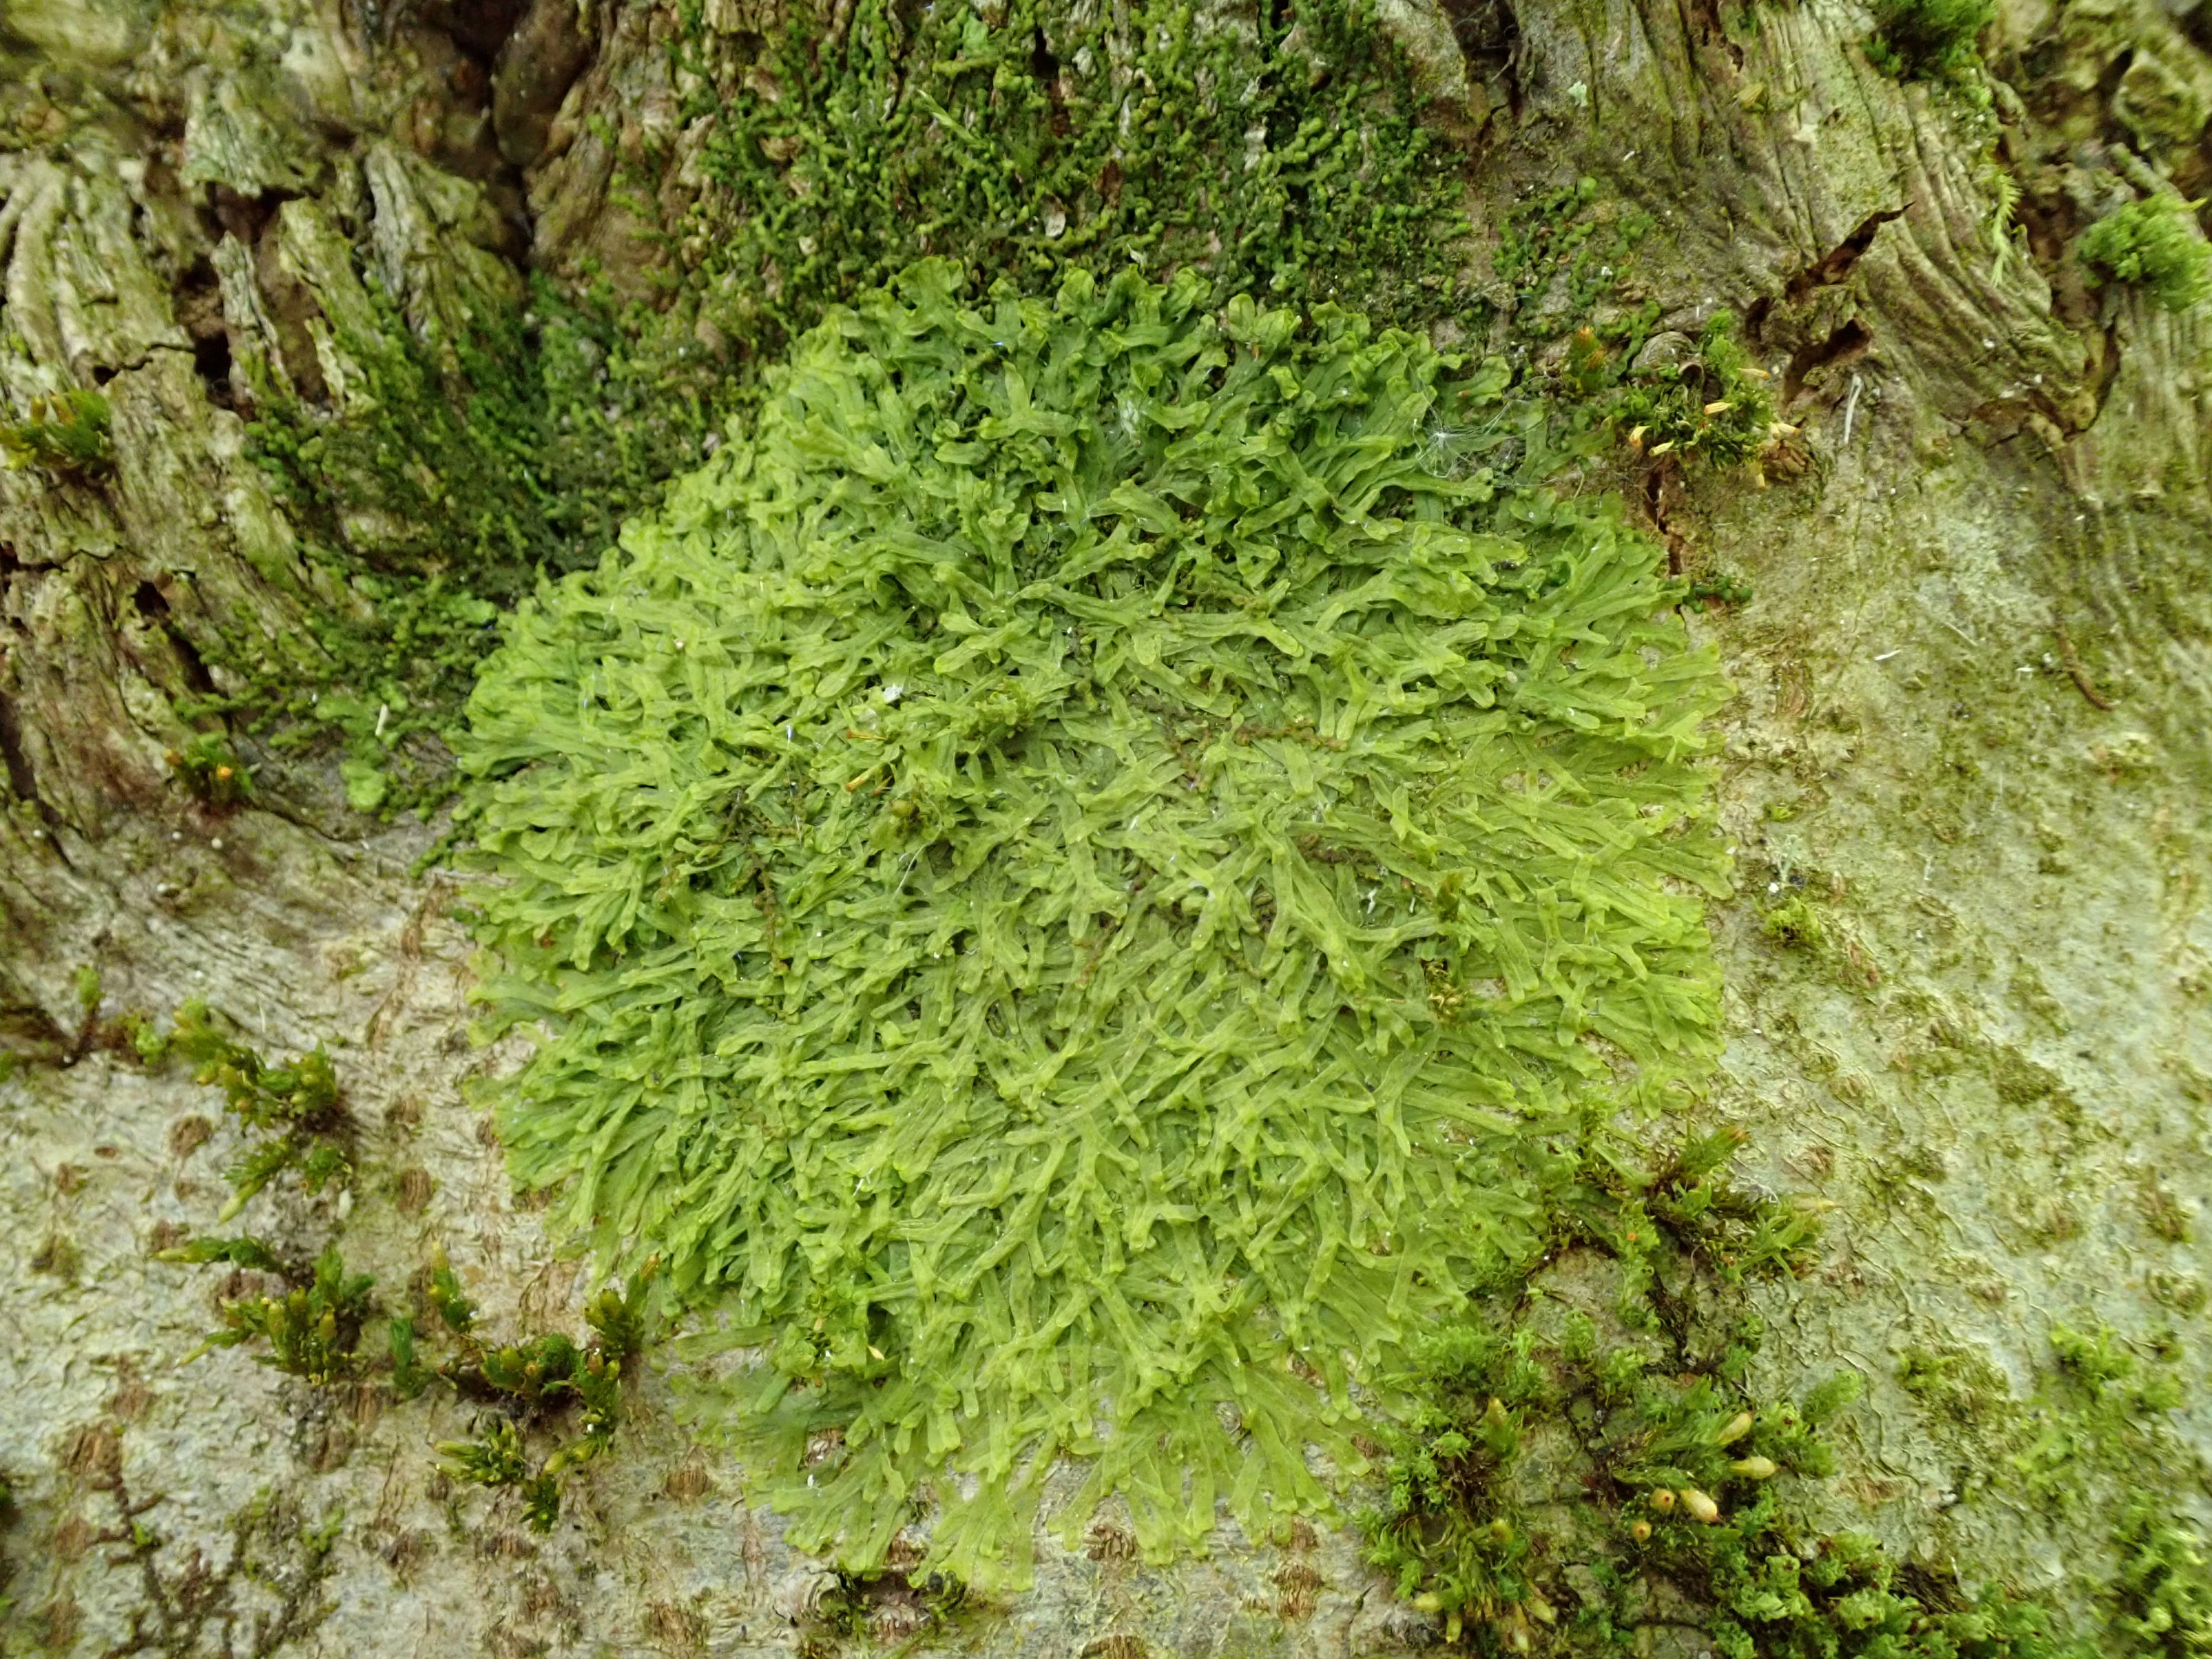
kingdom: Plantae
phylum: Marchantiophyta
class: Jungermanniopsida
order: Metzgeriales
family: Metzgeriaceae
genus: Metzgeria
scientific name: Metzgeria furcata
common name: Almindelig gaffelløv
